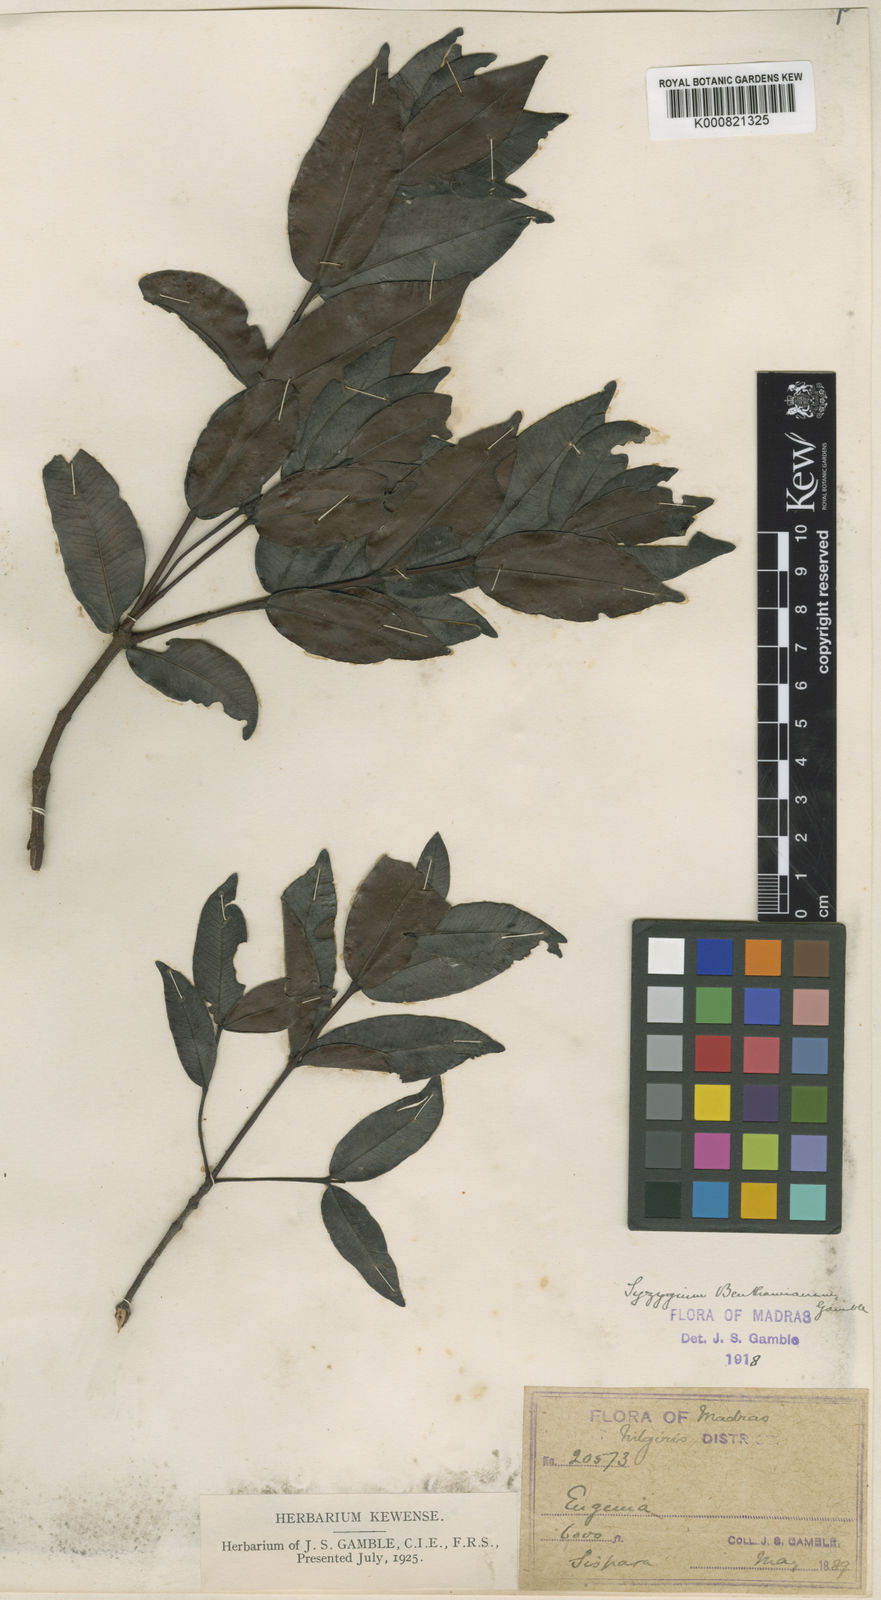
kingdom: Plantae
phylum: Tracheophyta
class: Magnoliopsida
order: Myrtales
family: Myrtaceae
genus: Syzygium
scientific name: Syzygium benthamianum
